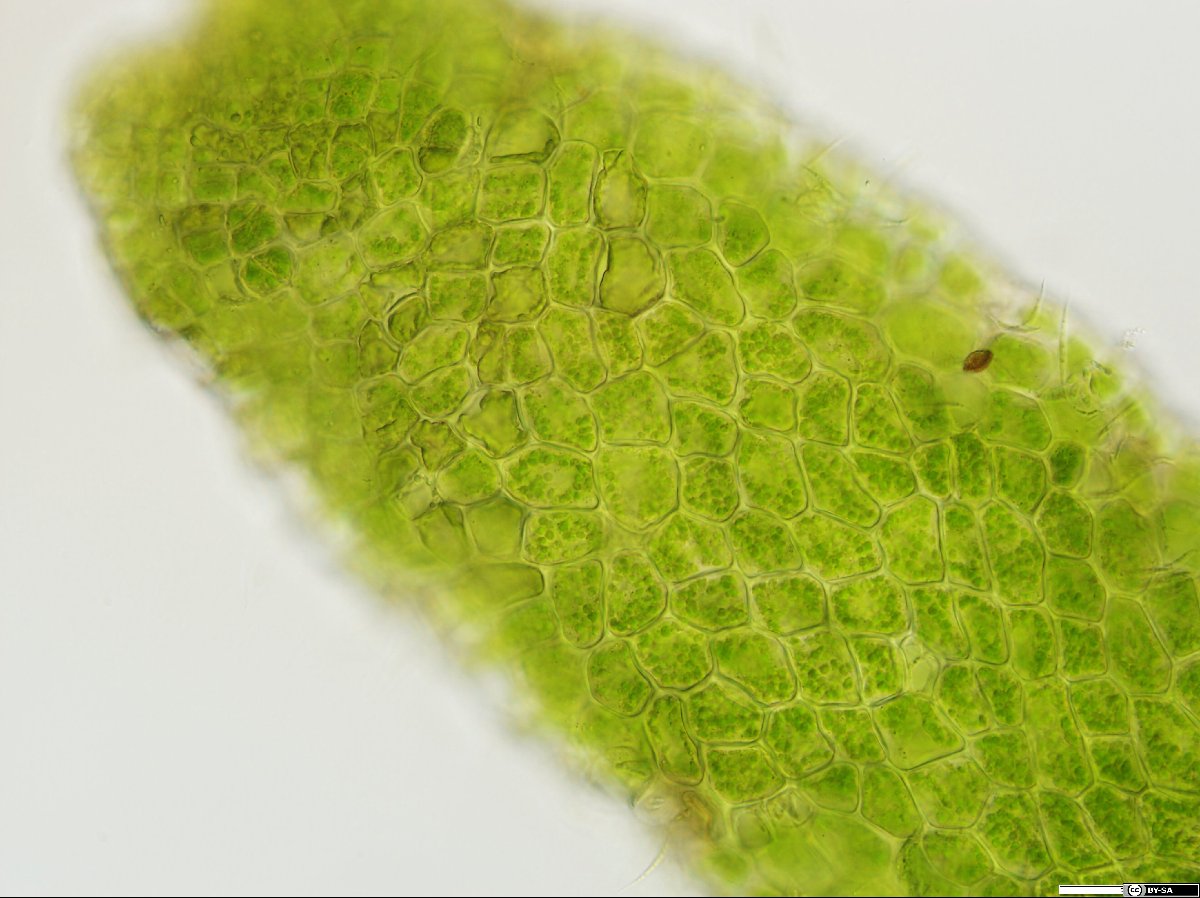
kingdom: Plantae
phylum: Marchantiophyta
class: Jungermanniopsida
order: Metzgeriales
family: Aneuraceae
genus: Riccardia
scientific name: Riccardia palmata
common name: Palmate germanderwort
